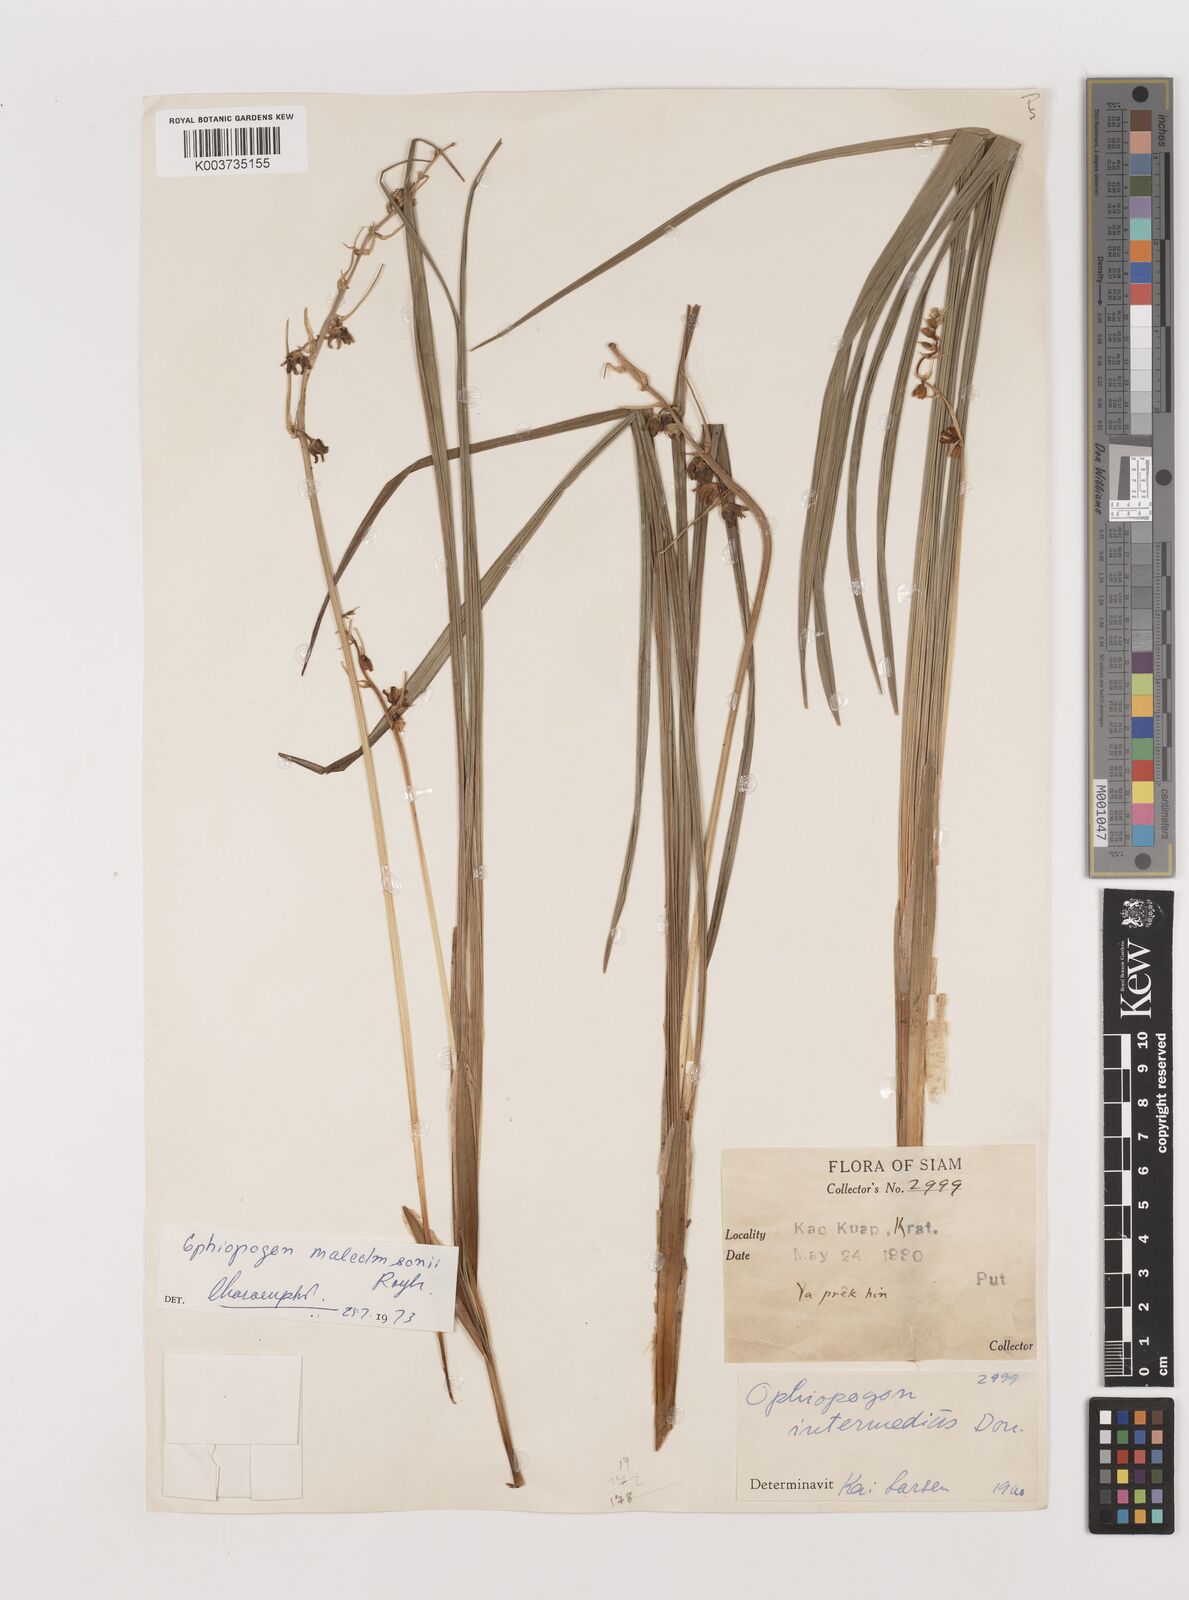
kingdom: Plantae
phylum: Tracheophyta
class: Liliopsida
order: Asparagales
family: Asparagaceae
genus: Ophiopogon
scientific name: Ophiopogon malcolmsonii
